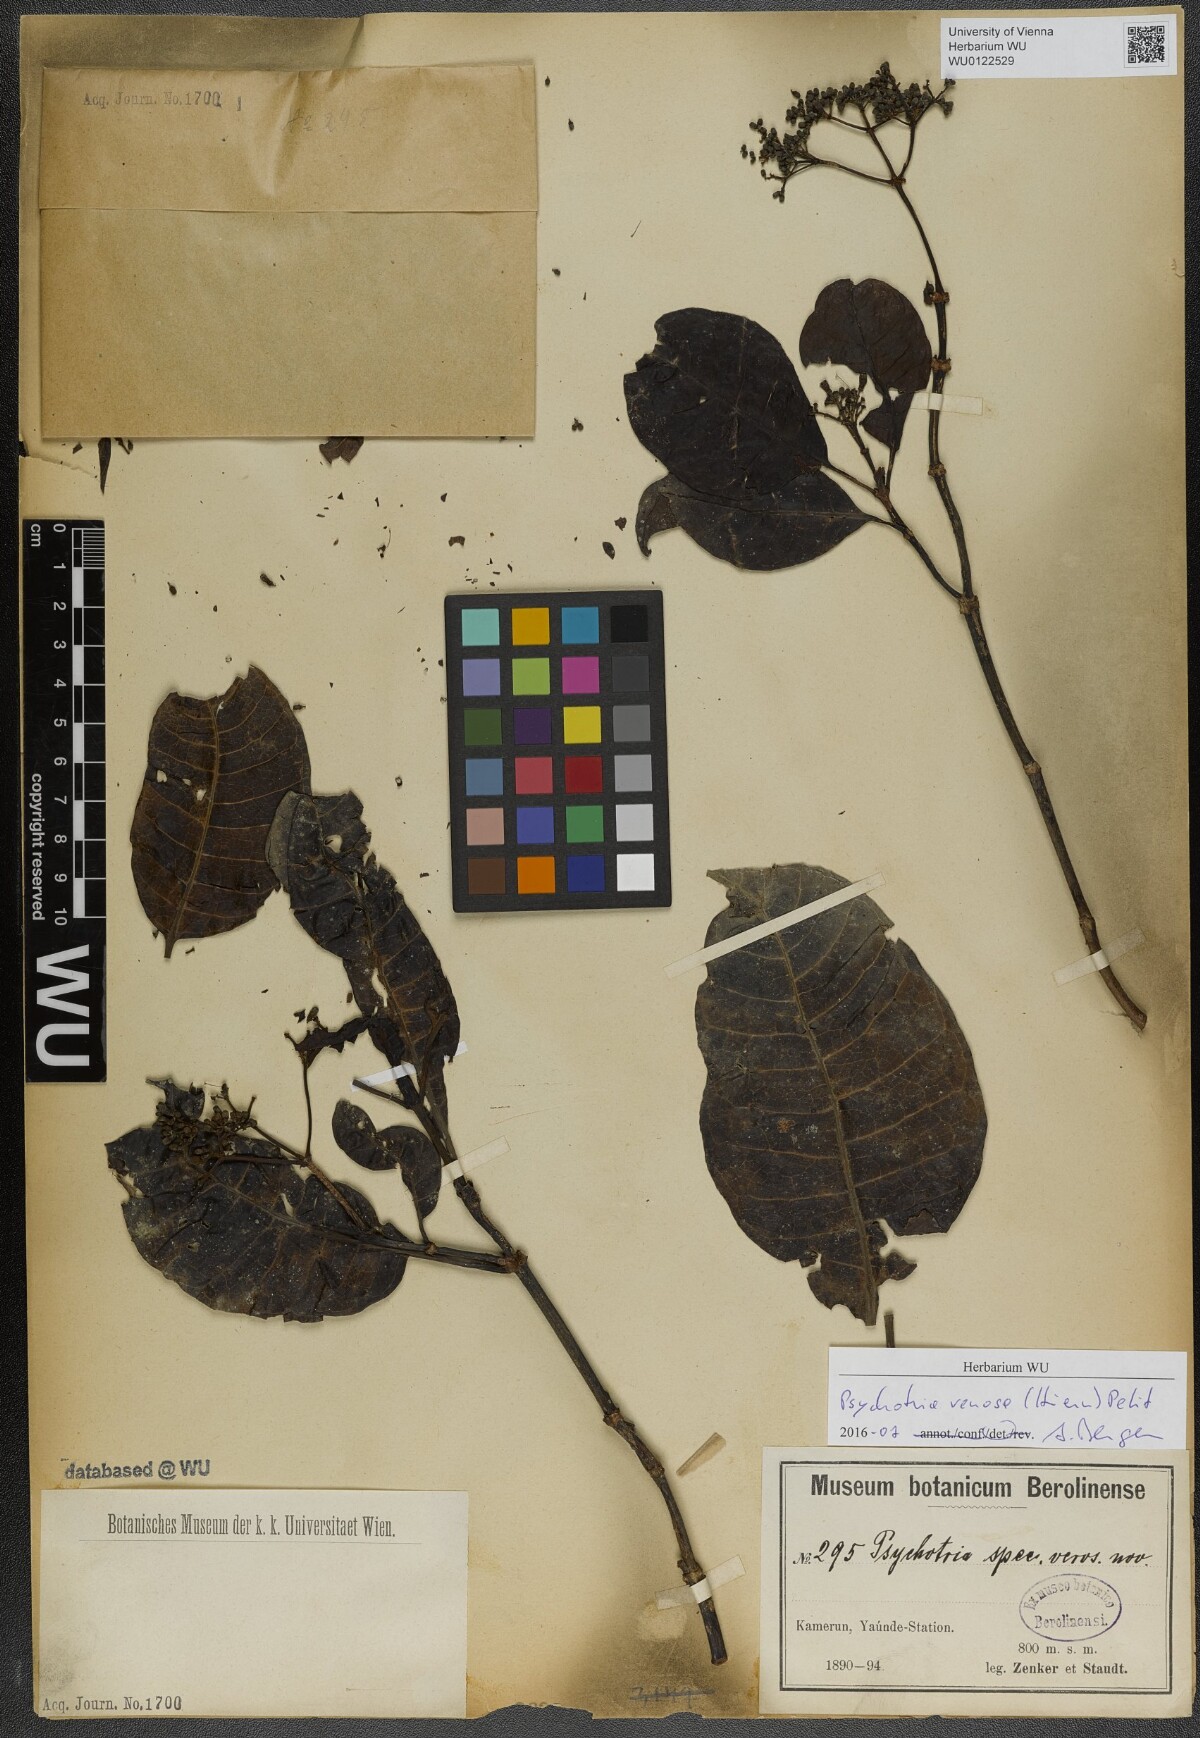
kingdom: Plantae
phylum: Tracheophyta
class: Magnoliopsida
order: Gentianales
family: Rubiaceae
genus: Psychotria
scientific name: Psychotria venosa
